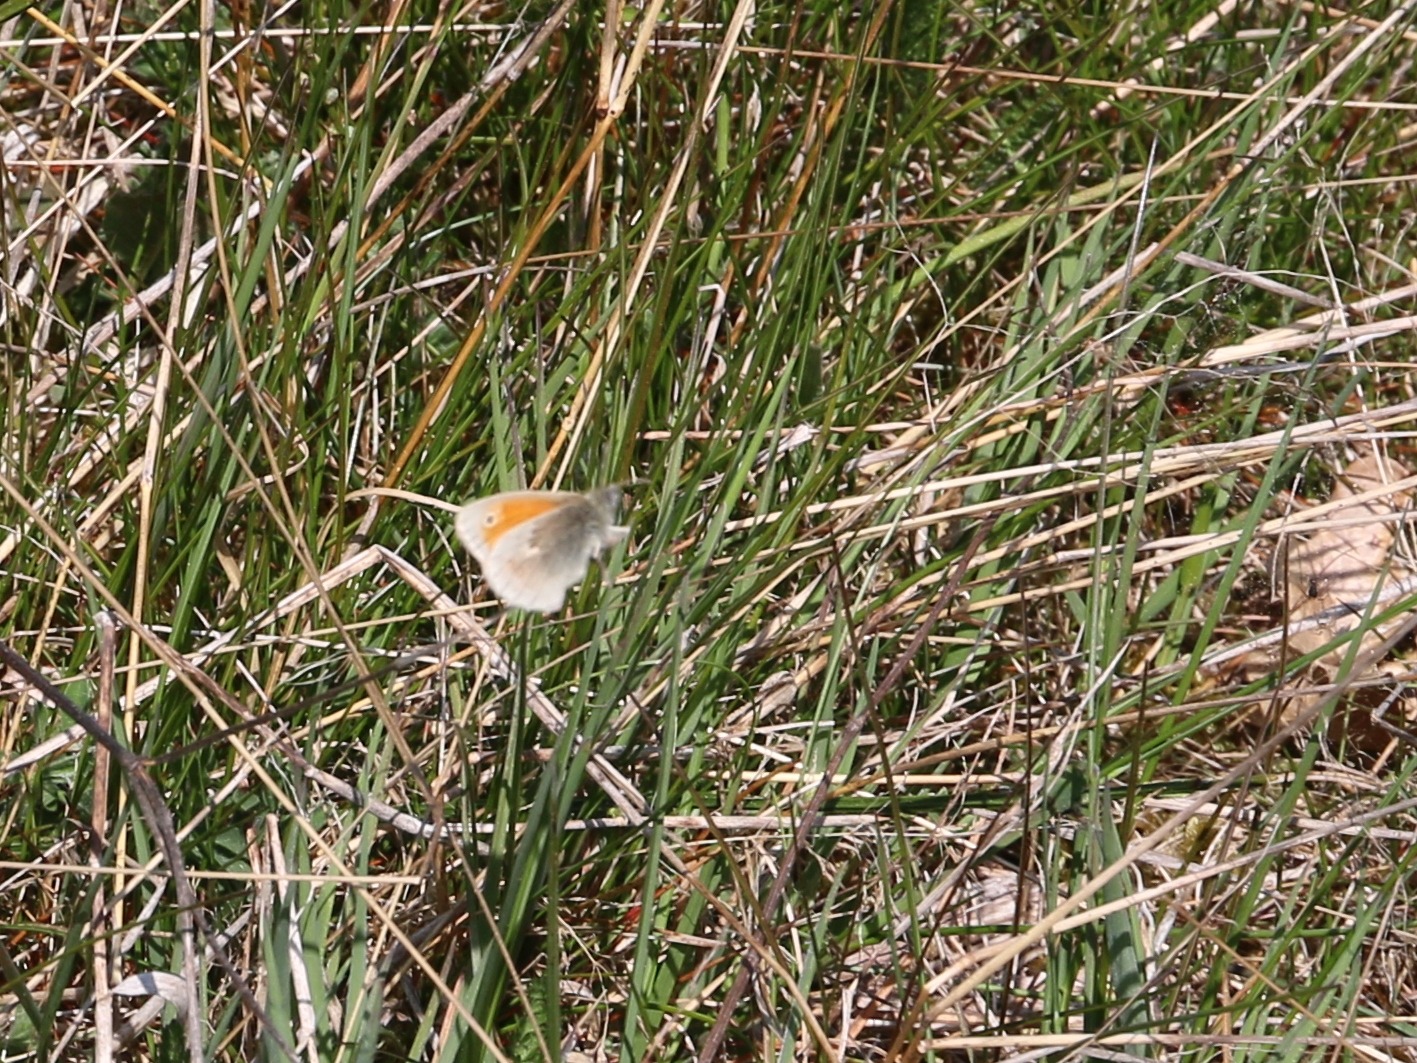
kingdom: Animalia
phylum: Arthropoda
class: Insecta
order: Lepidoptera
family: Nymphalidae
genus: Coenonympha
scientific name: Coenonympha pamphilus
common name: Okkergul randøje
